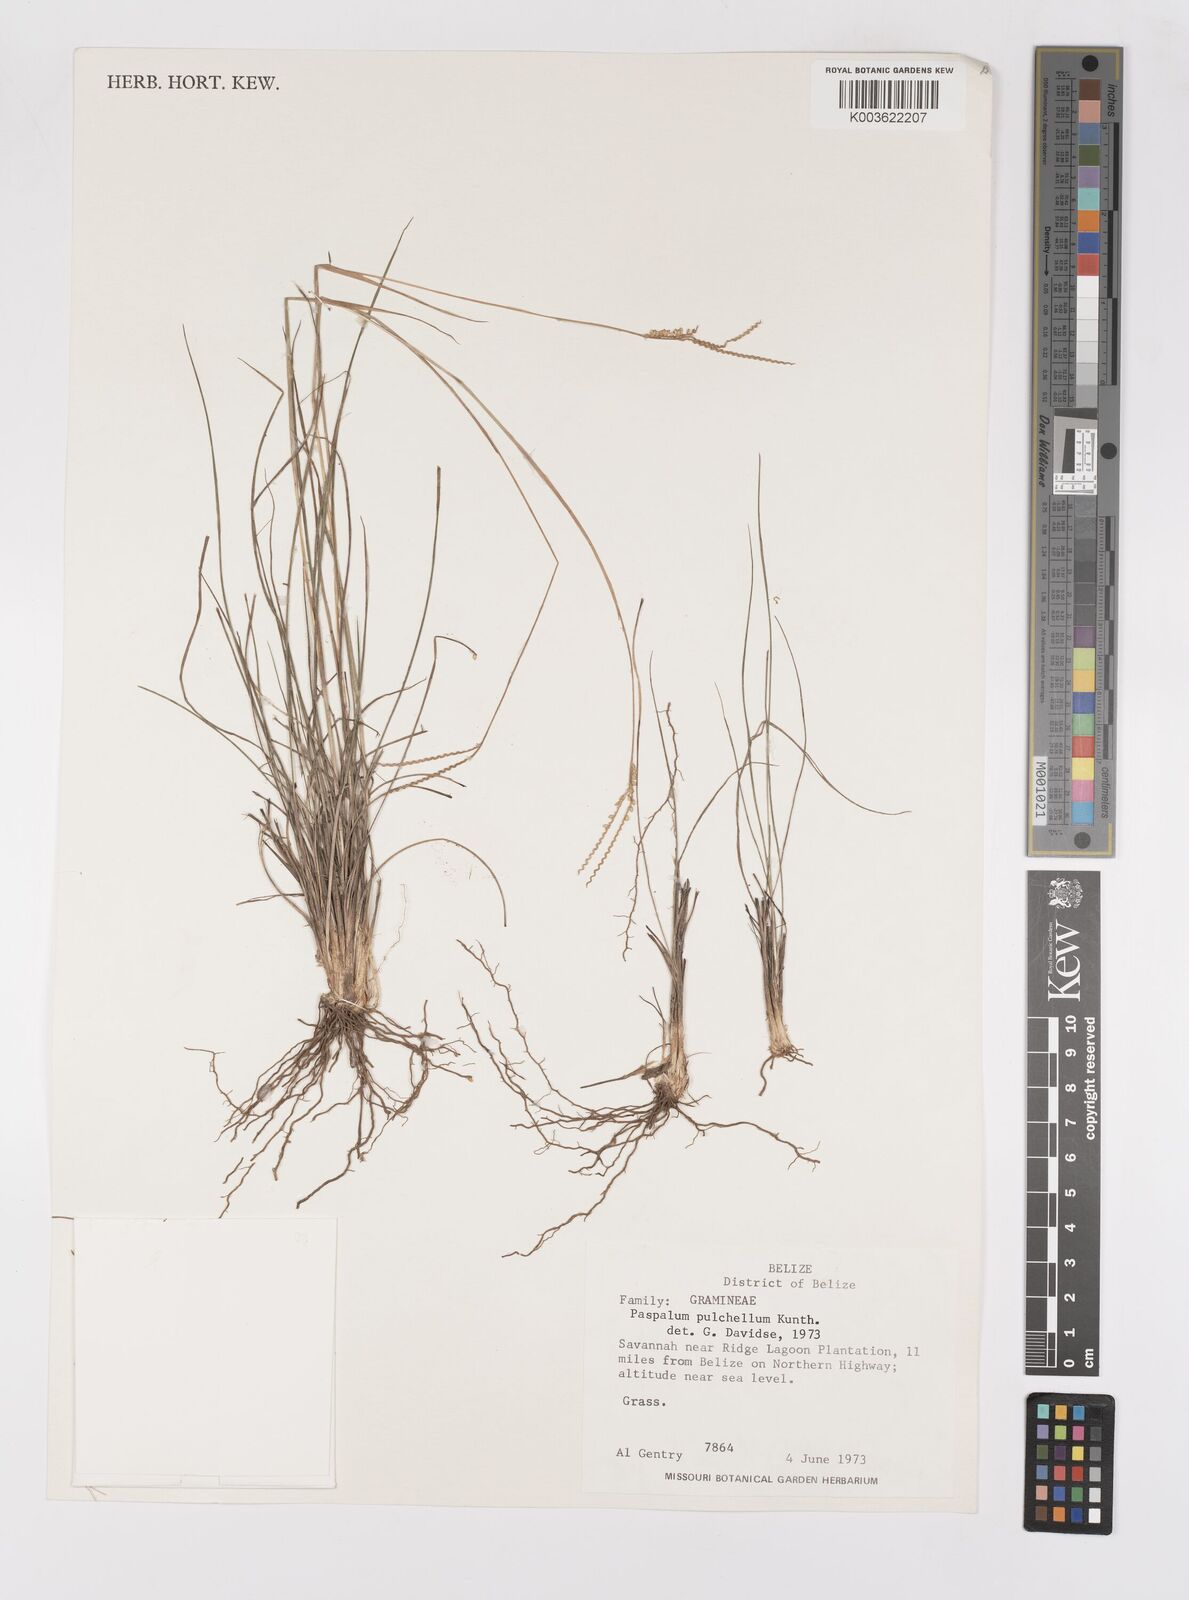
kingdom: Plantae
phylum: Tracheophyta
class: Liliopsida
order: Poales
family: Poaceae
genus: Paspalum
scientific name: Paspalum pulchellum
